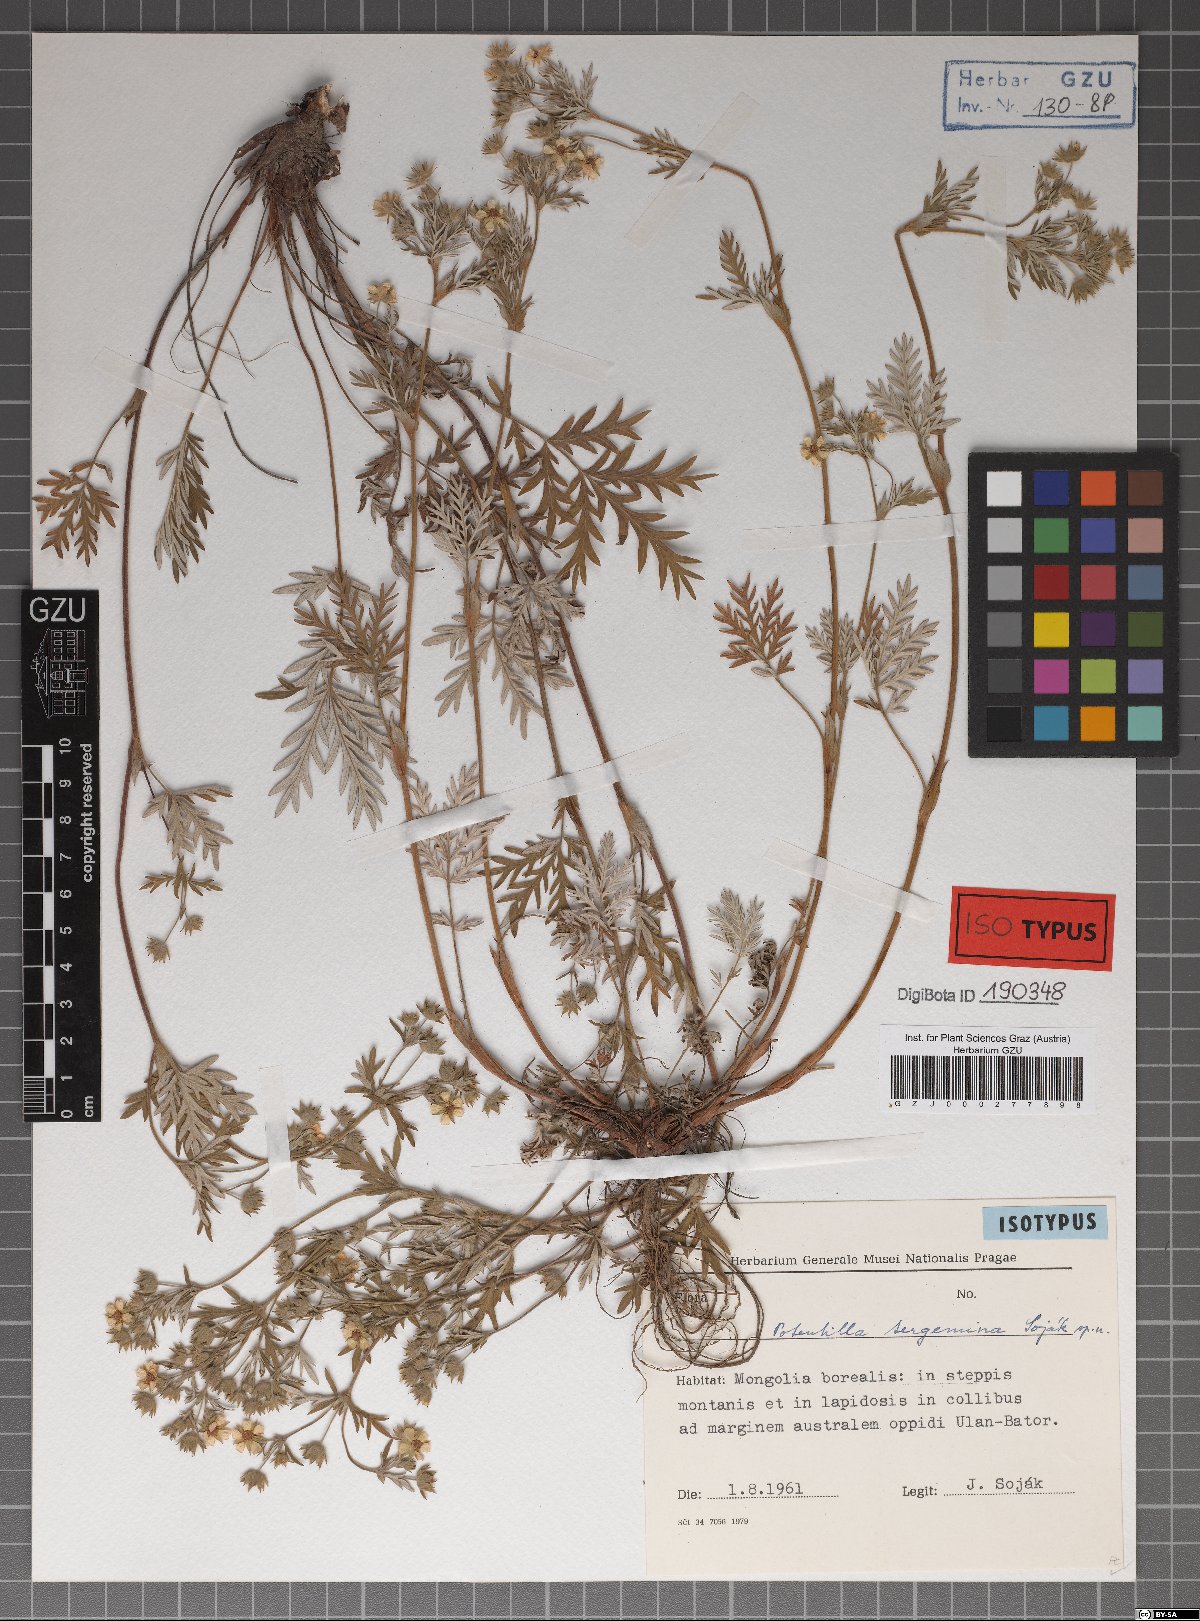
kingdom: Plantae
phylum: Tracheophyta
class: Magnoliopsida
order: Rosales
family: Rosaceae
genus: Potentilla
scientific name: Potentilla tergemina
